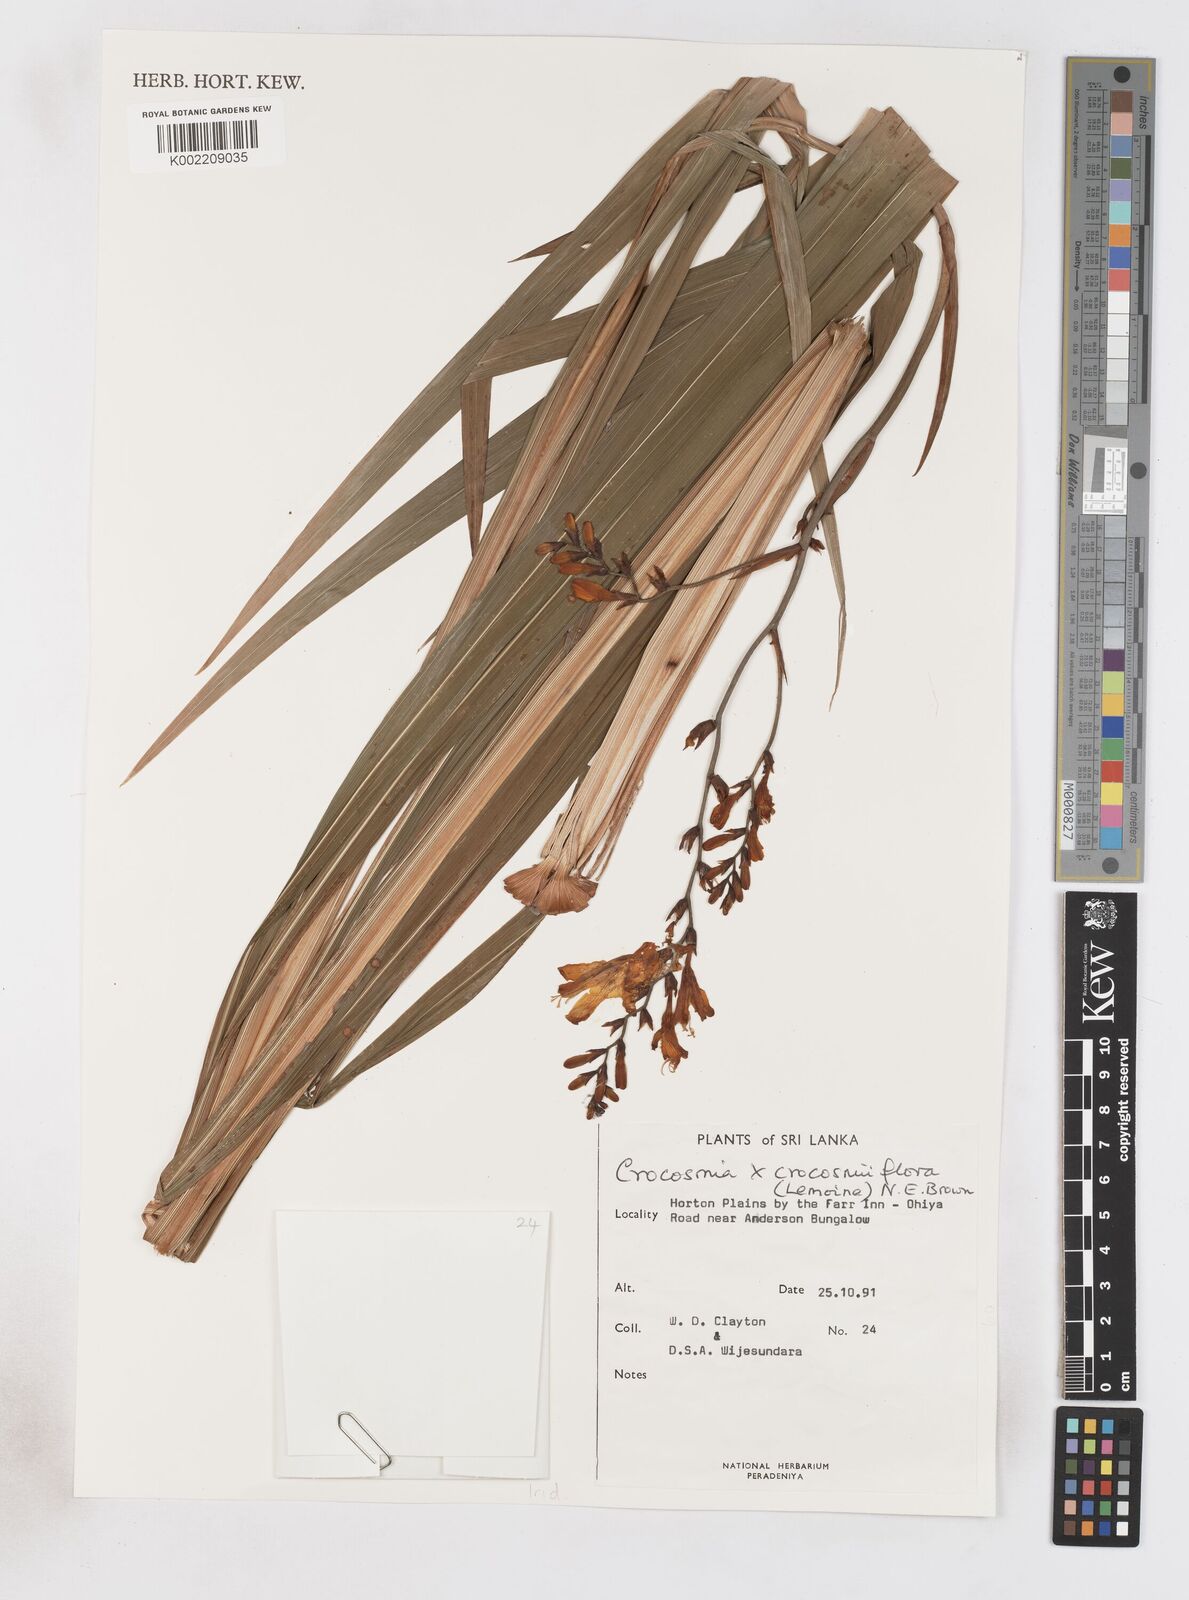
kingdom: Plantae
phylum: Tracheophyta
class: Liliopsida
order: Asparagales
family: Iridaceae
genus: Crocosmia
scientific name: Crocosmia crocosmiiflora
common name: Montbretia
